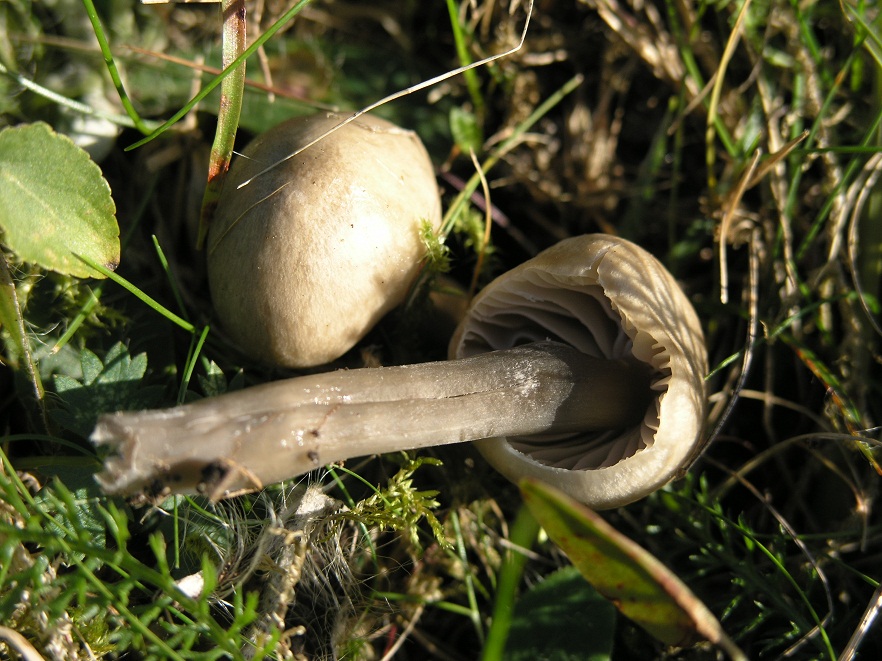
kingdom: Fungi
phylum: Basidiomycota
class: Agaricomycetes
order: Agaricales
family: Hygrophoraceae
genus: Gliophorus
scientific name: Gliophorus irrigatus
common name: slimet vokshat
